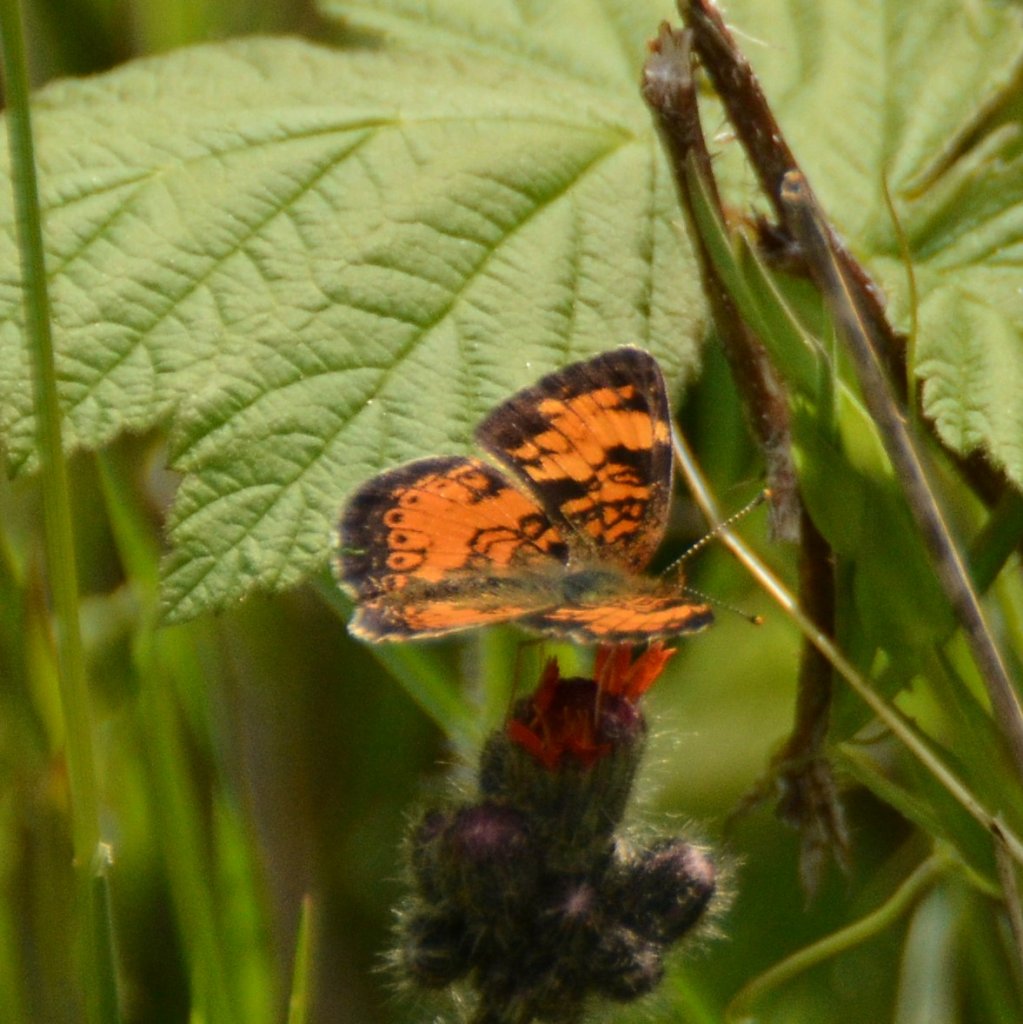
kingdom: Animalia
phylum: Arthropoda
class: Insecta
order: Lepidoptera
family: Nymphalidae
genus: Phyciodes
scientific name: Phyciodes tharos
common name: Northern Crescent
